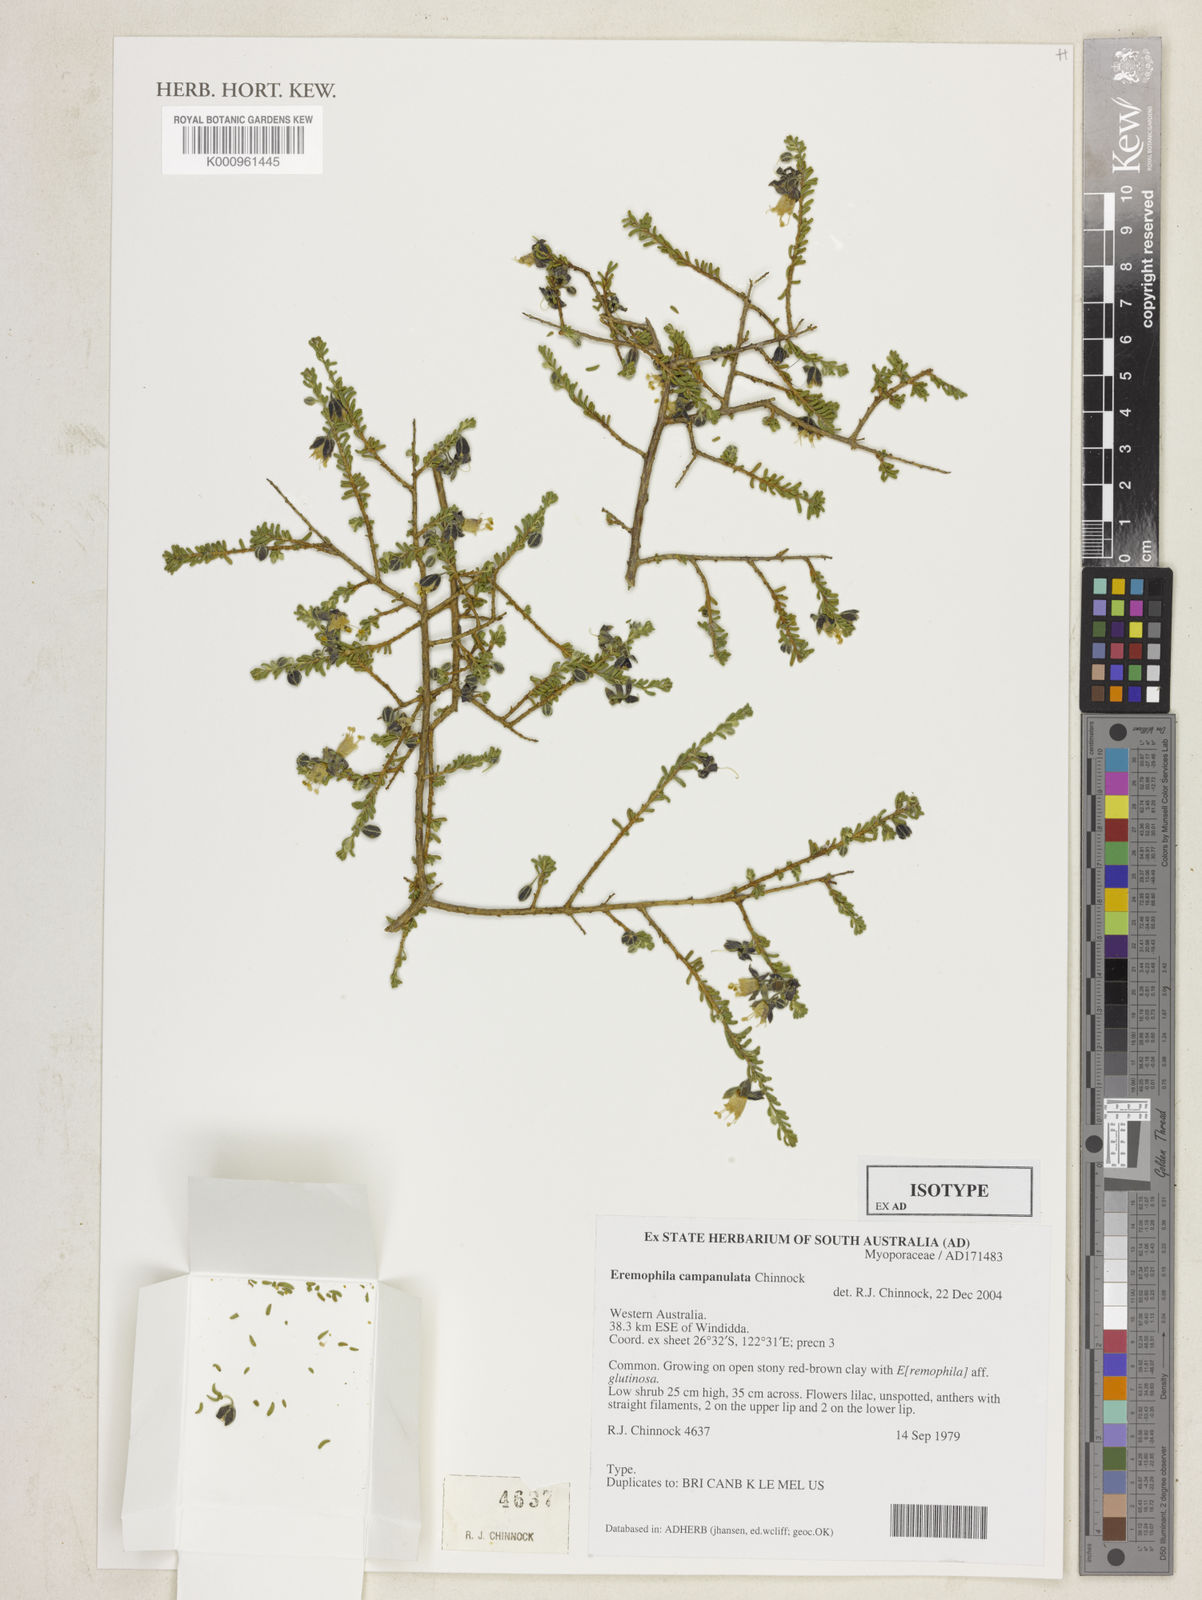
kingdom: Plantae
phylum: Tracheophyta
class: Magnoliopsida
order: Lamiales
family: Scrophulariaceae
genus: Eremophila
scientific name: Eremophila campanulata
